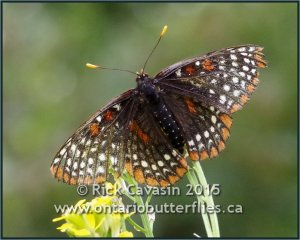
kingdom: Animalia
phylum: Arthropoda
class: Insecta
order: Lepidoptera
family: Nymphalidae
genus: Euphydryas
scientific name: Euphydryas phaeton
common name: Baltimore Checkerspot
